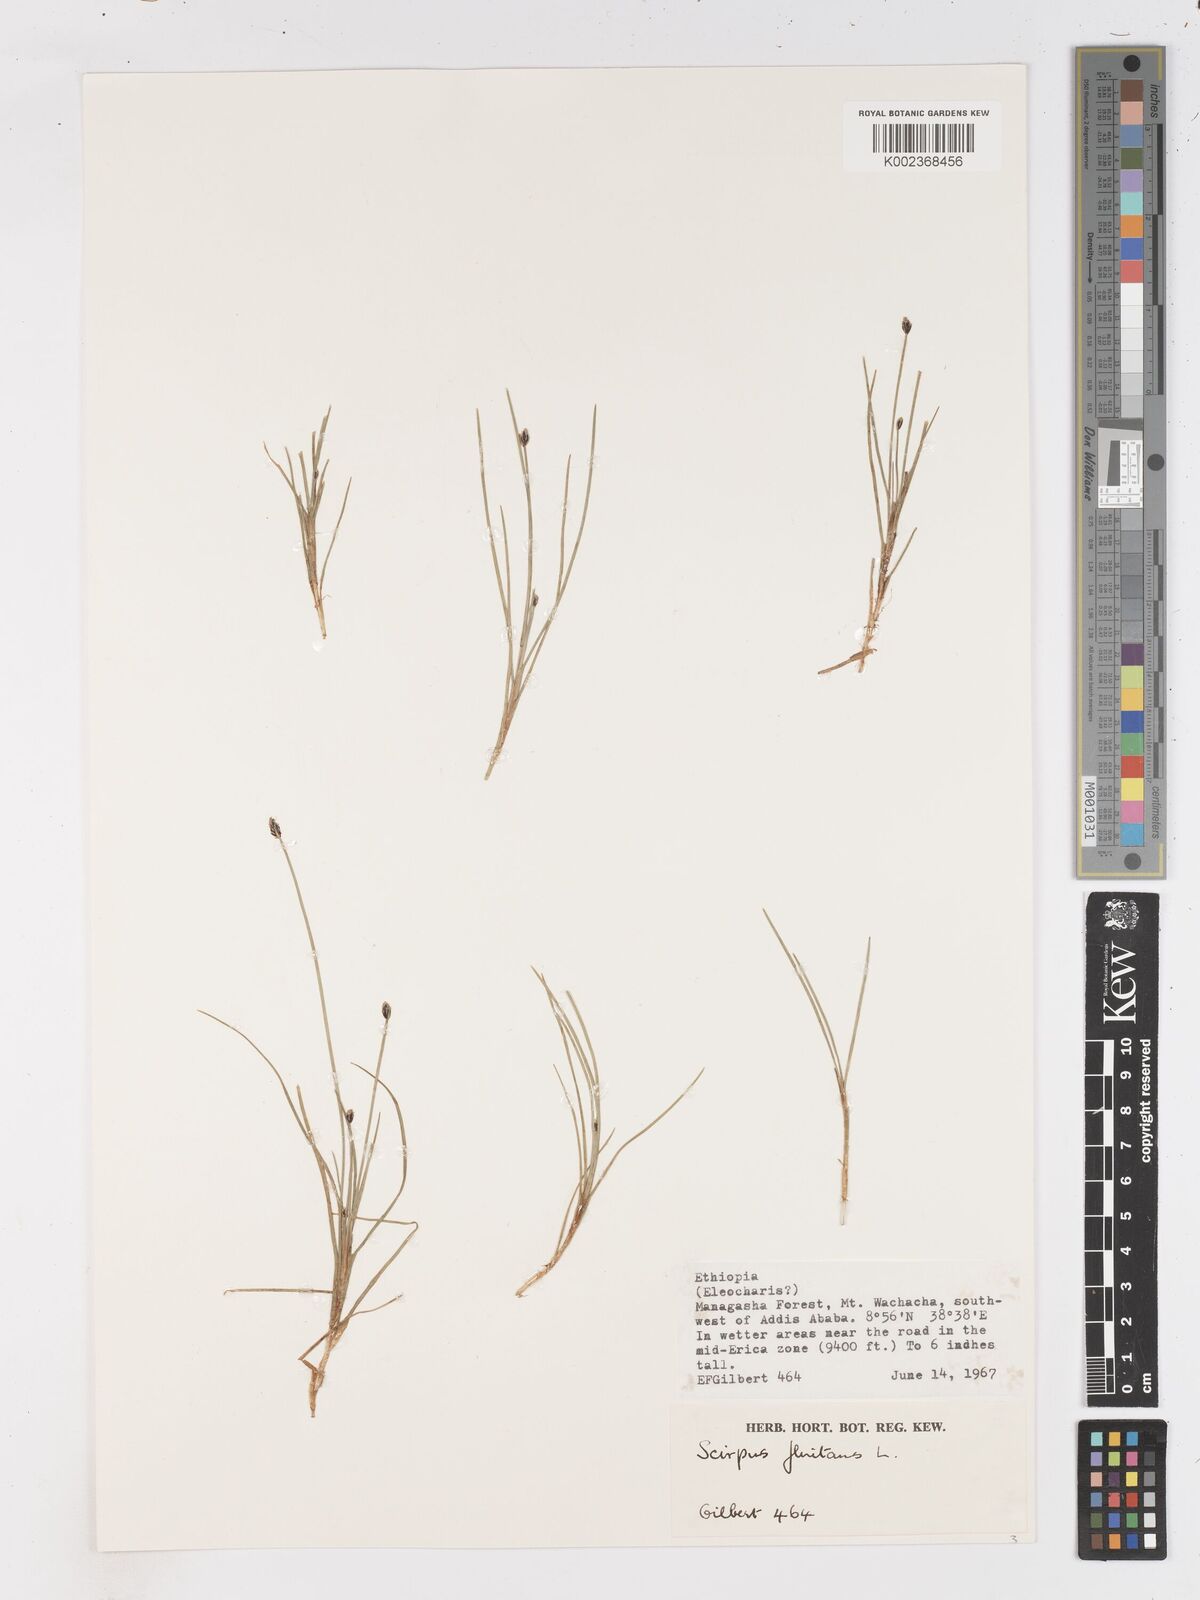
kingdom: Plantae
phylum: Tracheophyta
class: Liliopsida
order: Poales
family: Cyperaceae
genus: Isolepis
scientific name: Isolepis fluitans
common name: Floating club-rush
